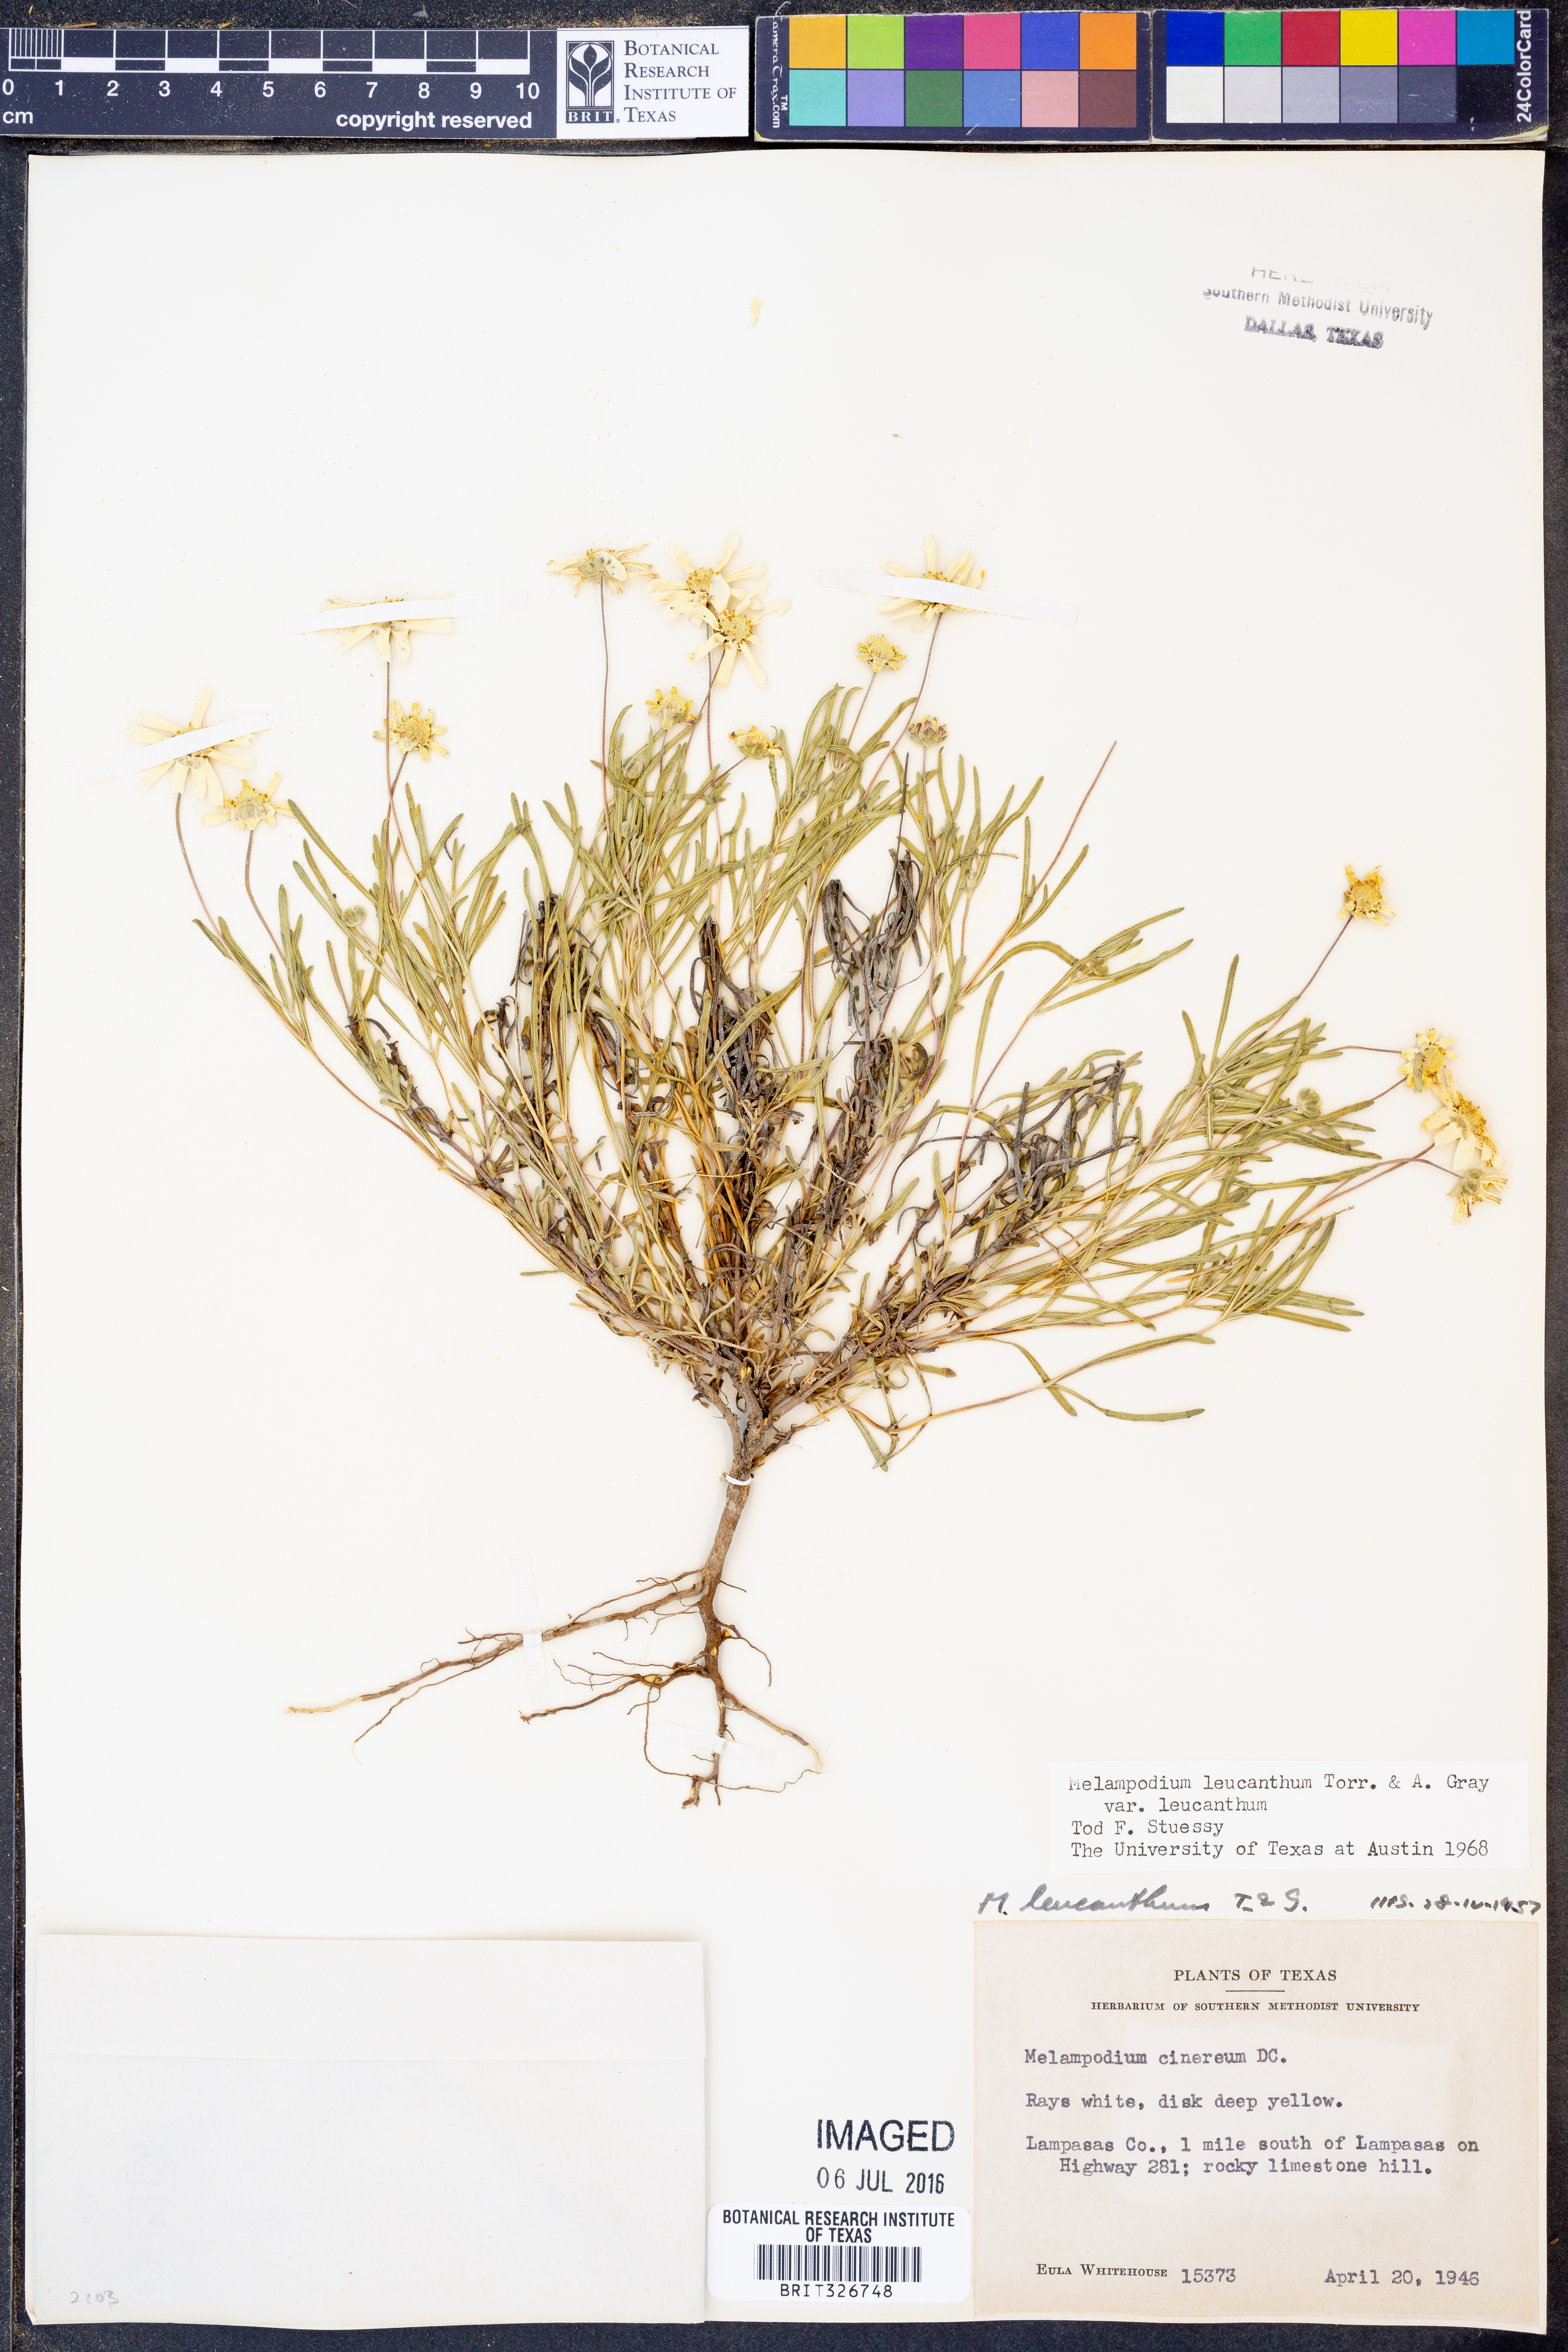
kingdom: Plantae
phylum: Tracheophyta
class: Magnoliopsida
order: Asterales
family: Asteraceae
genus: Melampodium
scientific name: Melampodium leucanthum
